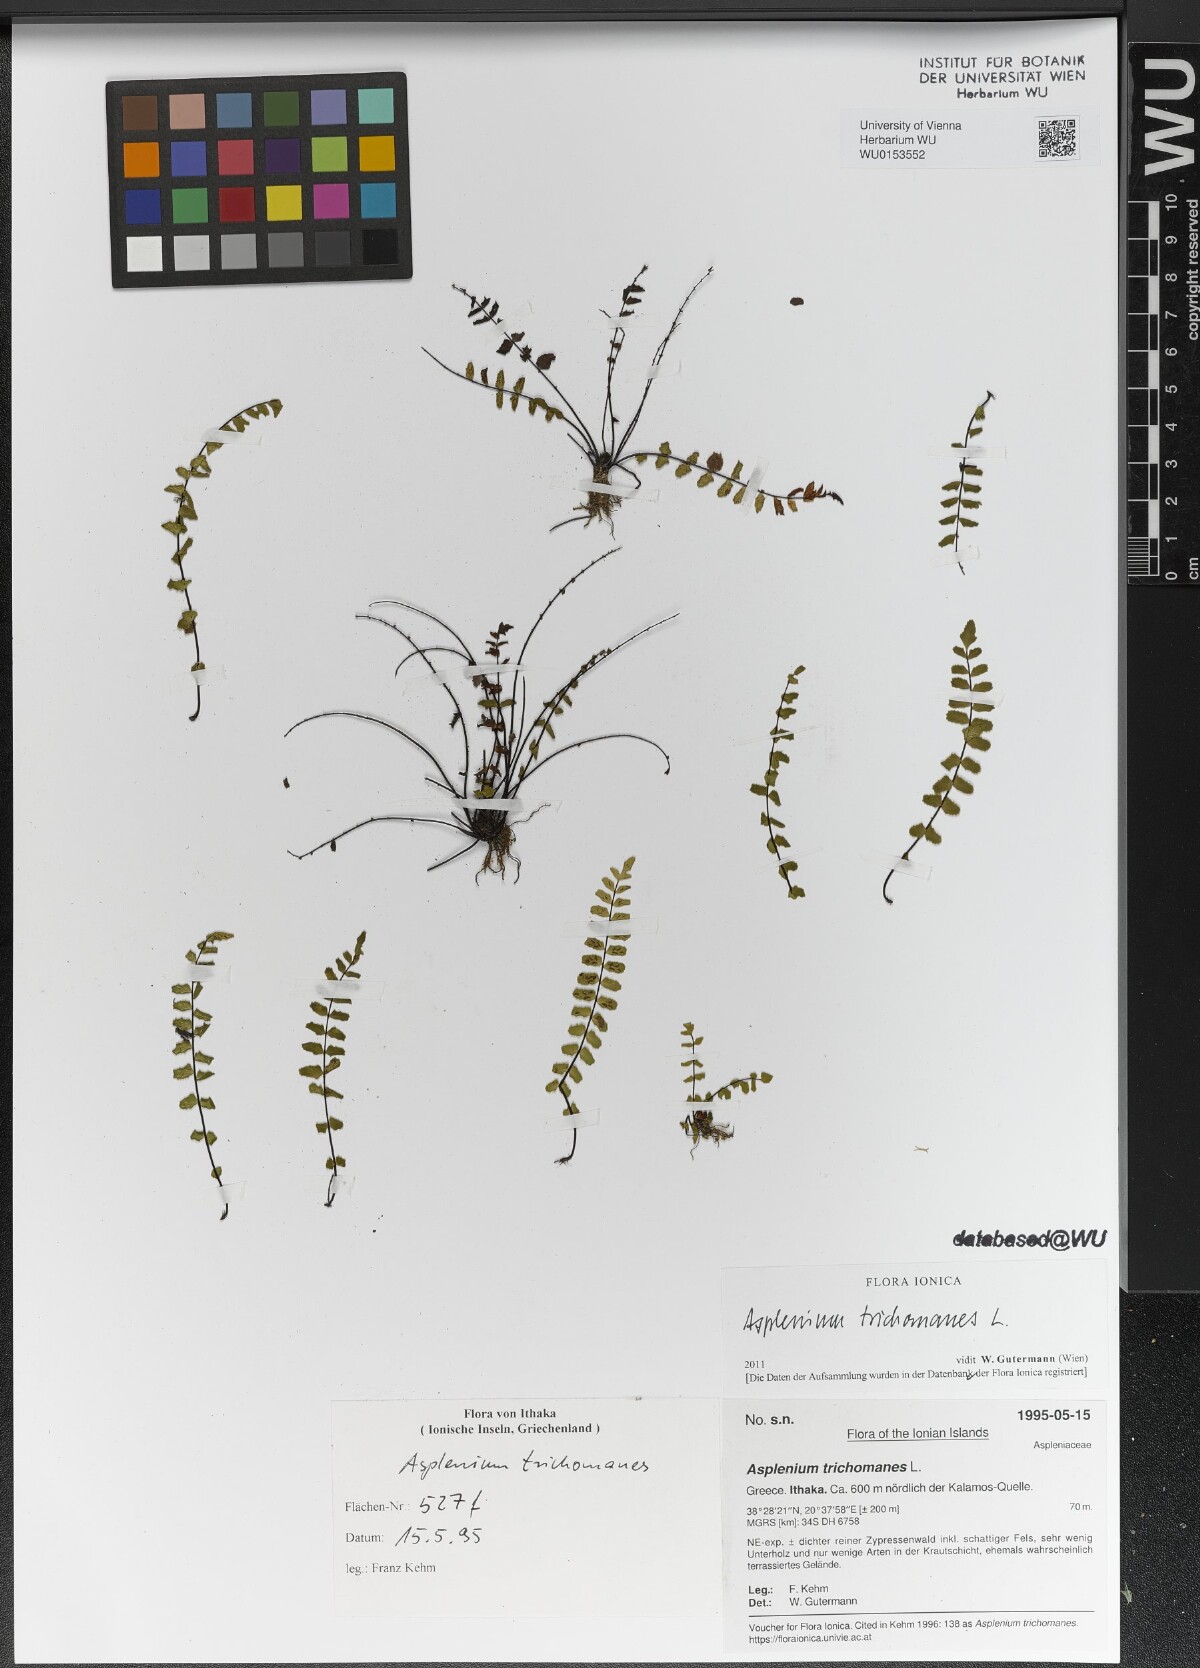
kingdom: Plantae
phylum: Tracheophyta
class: Polypodiopsida
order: Polypodiales
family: Aspleniaceae
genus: Asplenium
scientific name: Asplenium trichomanes
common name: Maidenhair spleenwort
